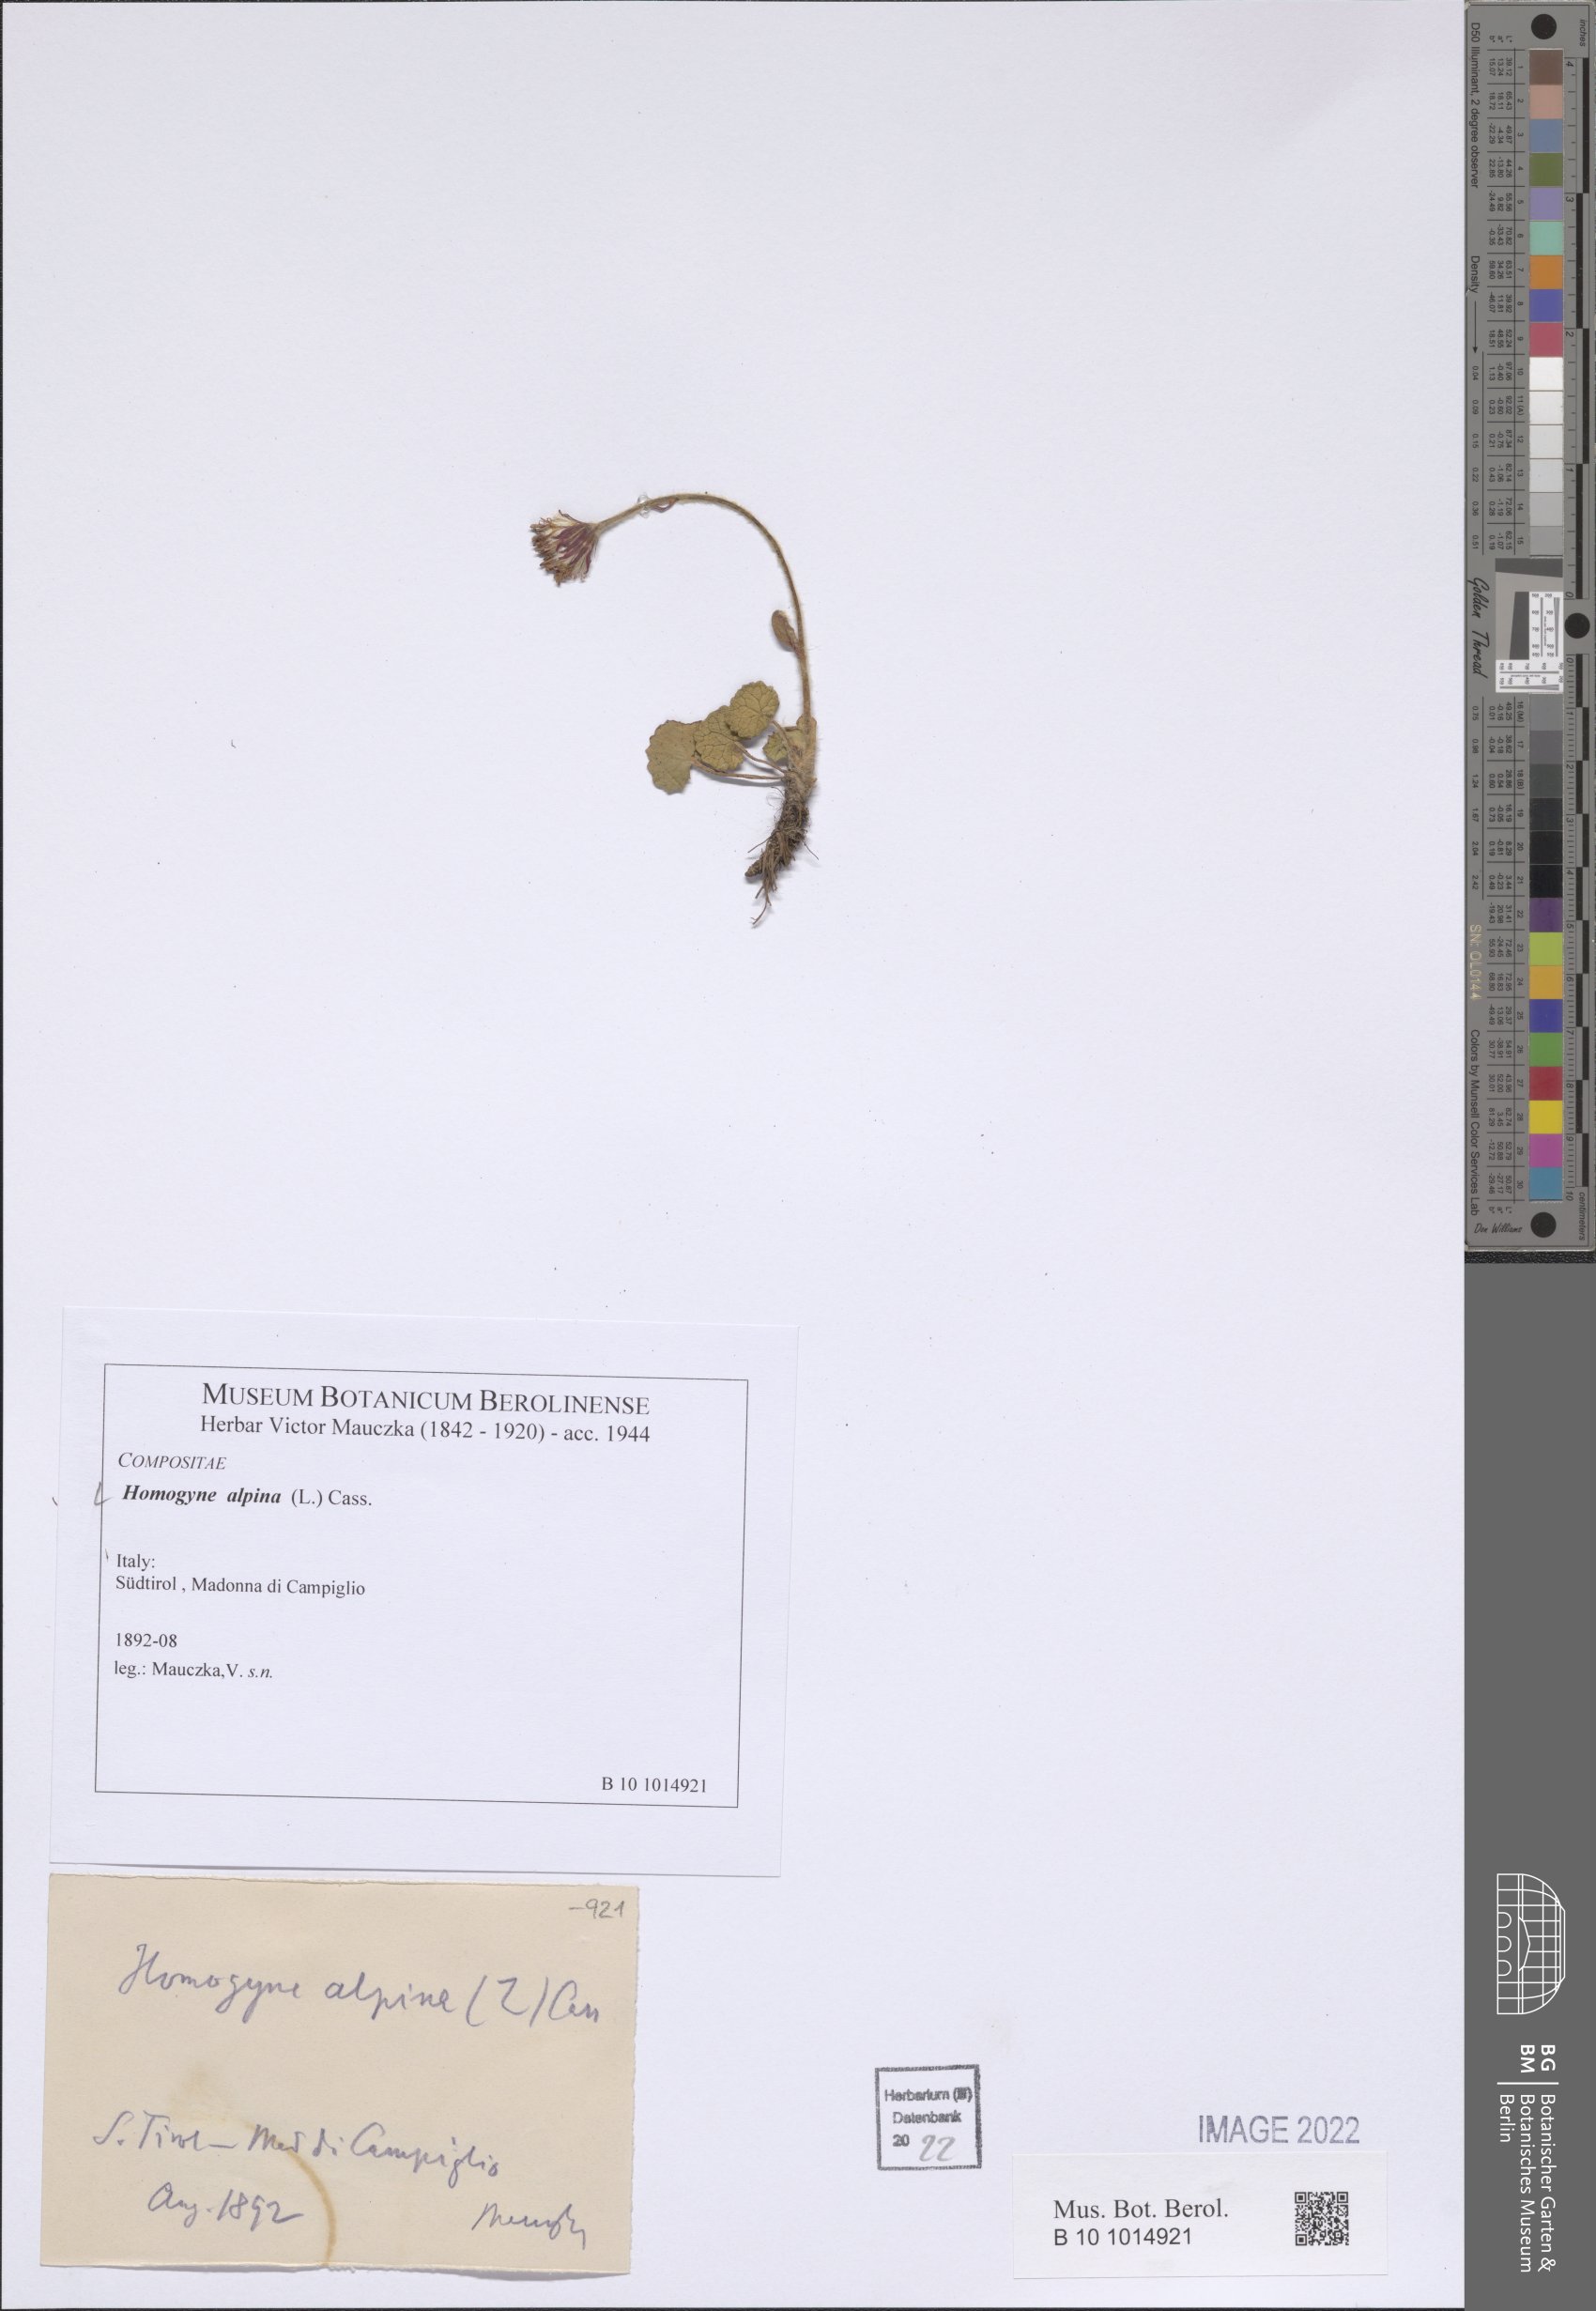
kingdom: Plantae
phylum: Tracheophyta
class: Magnoliopsida
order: Asterales
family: Asteraceae
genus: Homogyne
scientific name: Homogyne alpina
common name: Purple colt's-foot
